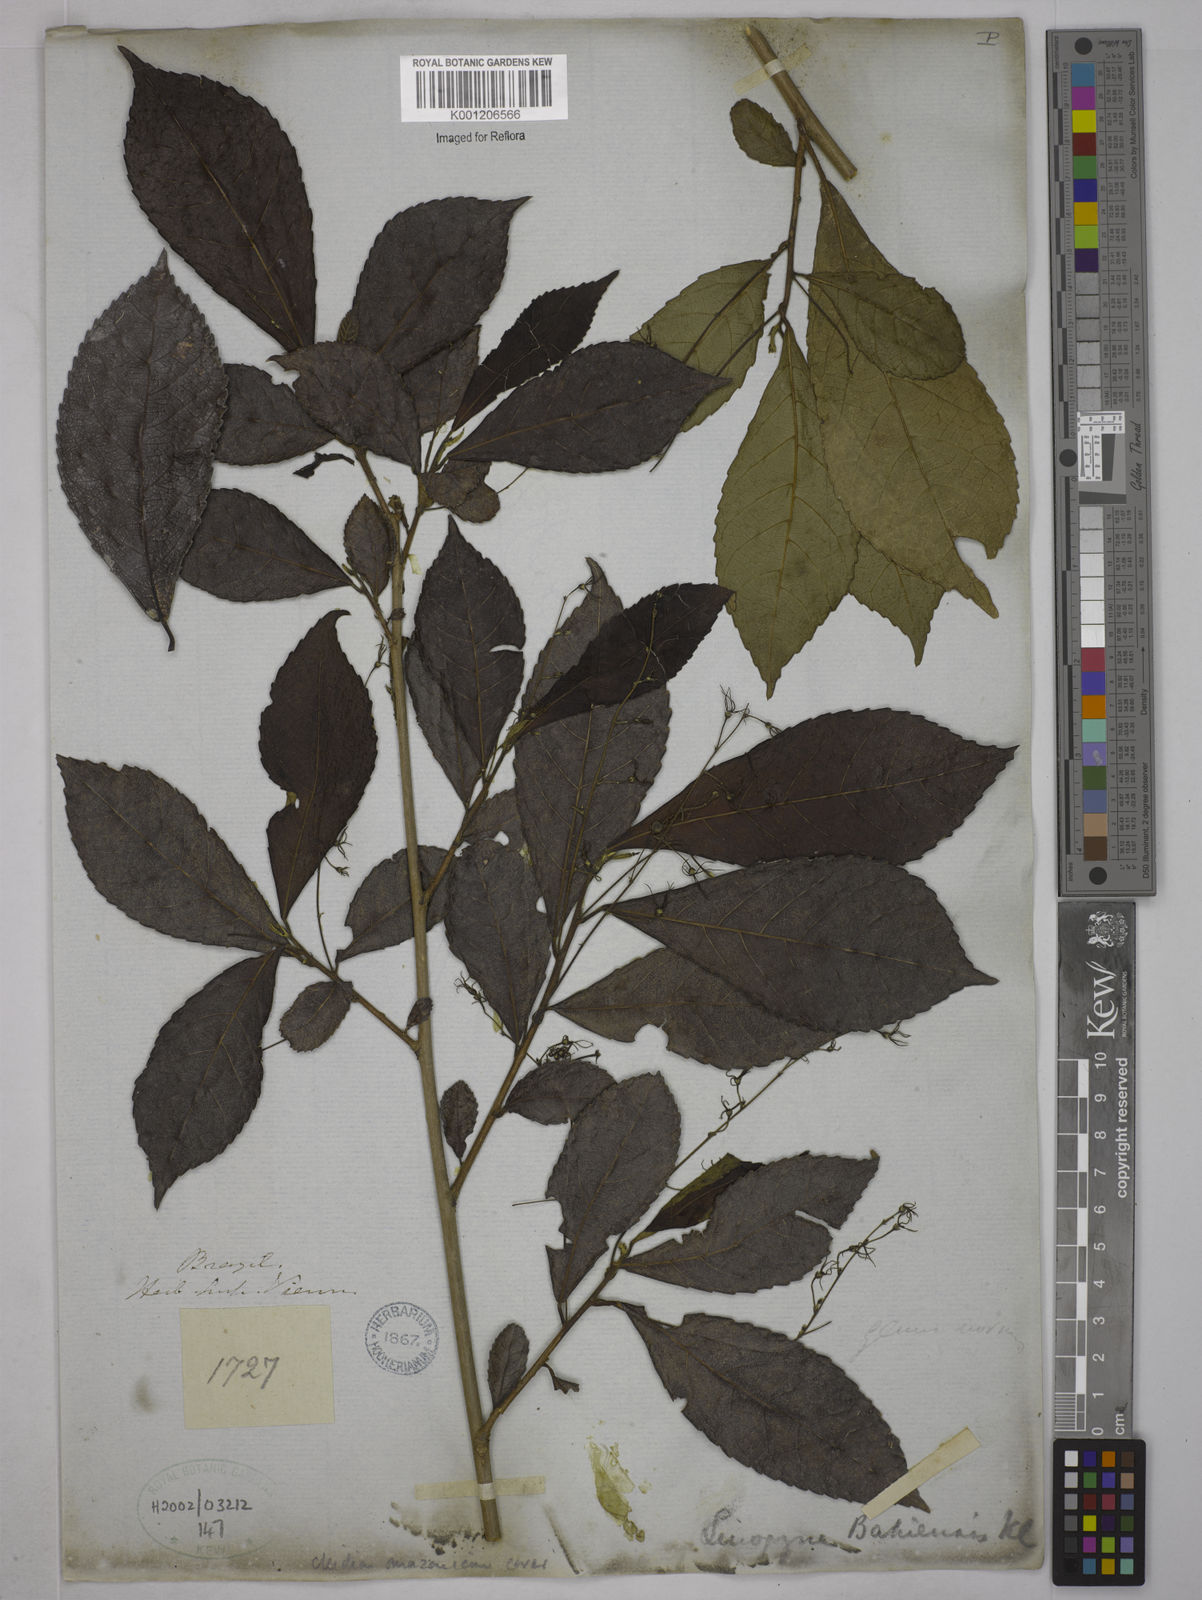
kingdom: Plantae
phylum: Tracheophyta
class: Magnoliopsida
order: Malpighiales
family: Euphorbiaceae
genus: Cleidion
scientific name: Cleidion amazonicum
